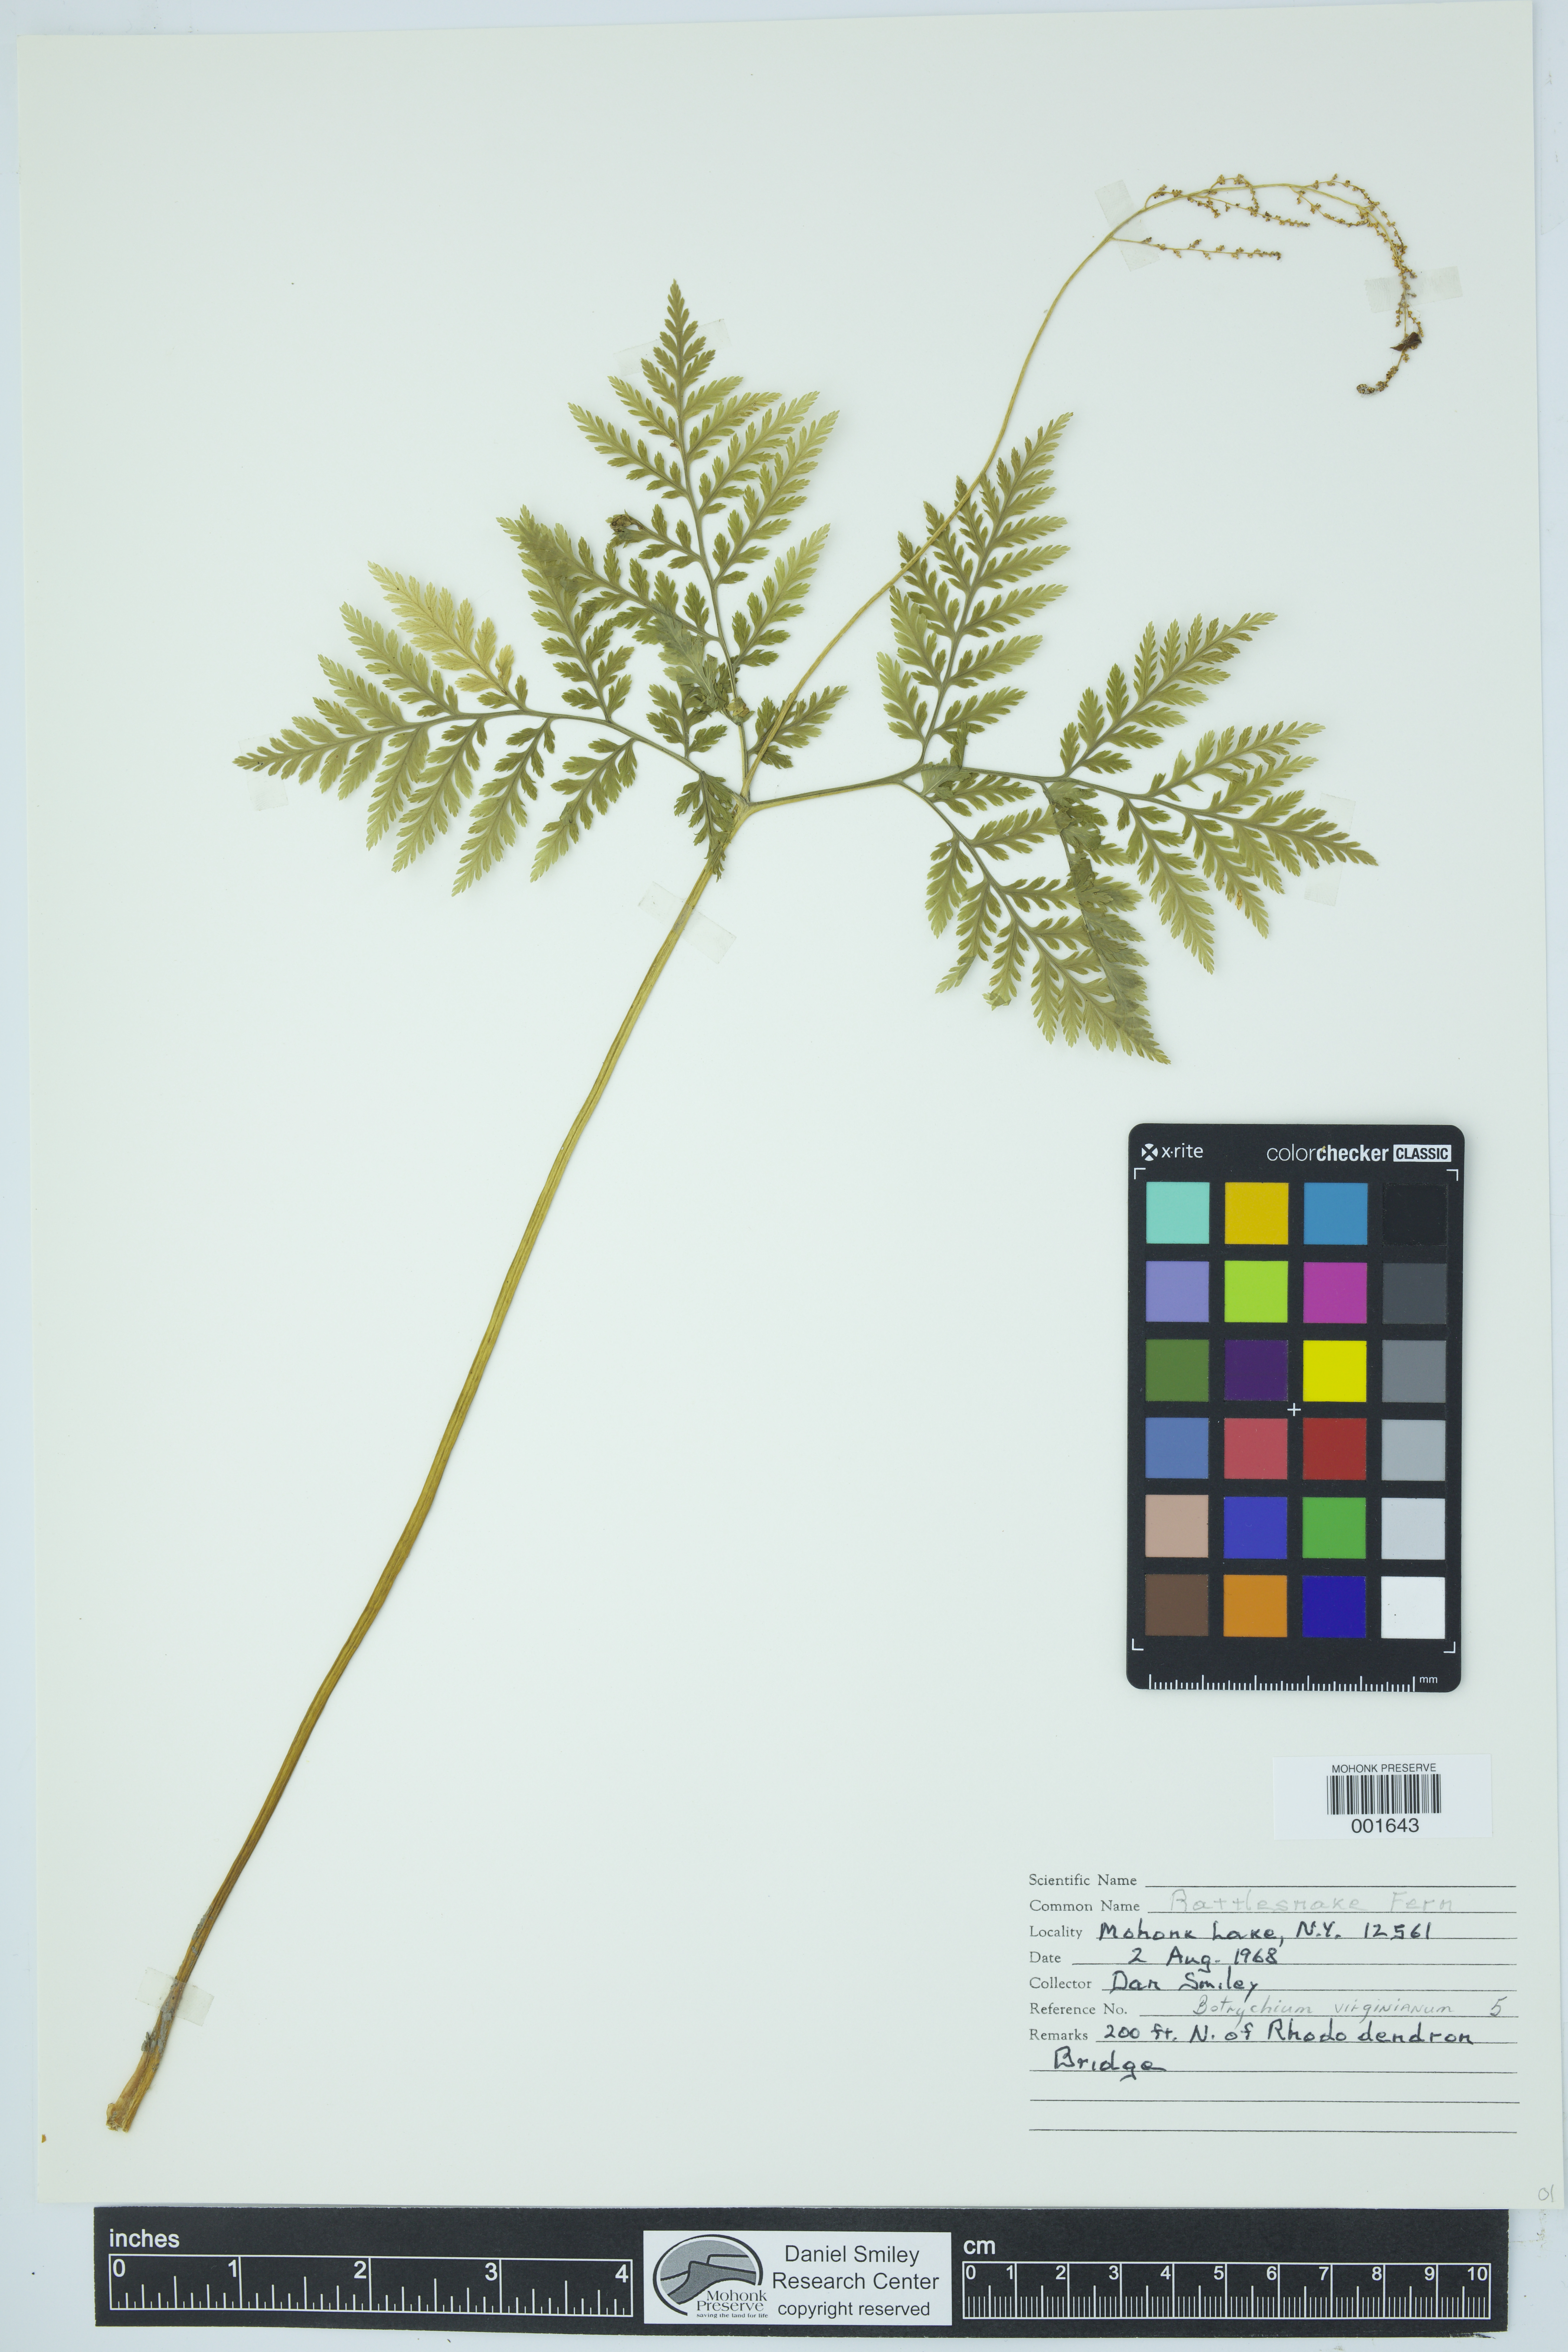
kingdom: Plantae
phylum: Tracheophyta
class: Polypodiopsida
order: Ophioglossales
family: Ophioglossaceae
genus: Botrypus
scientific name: Botrypus virginianus
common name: Common grapefern
